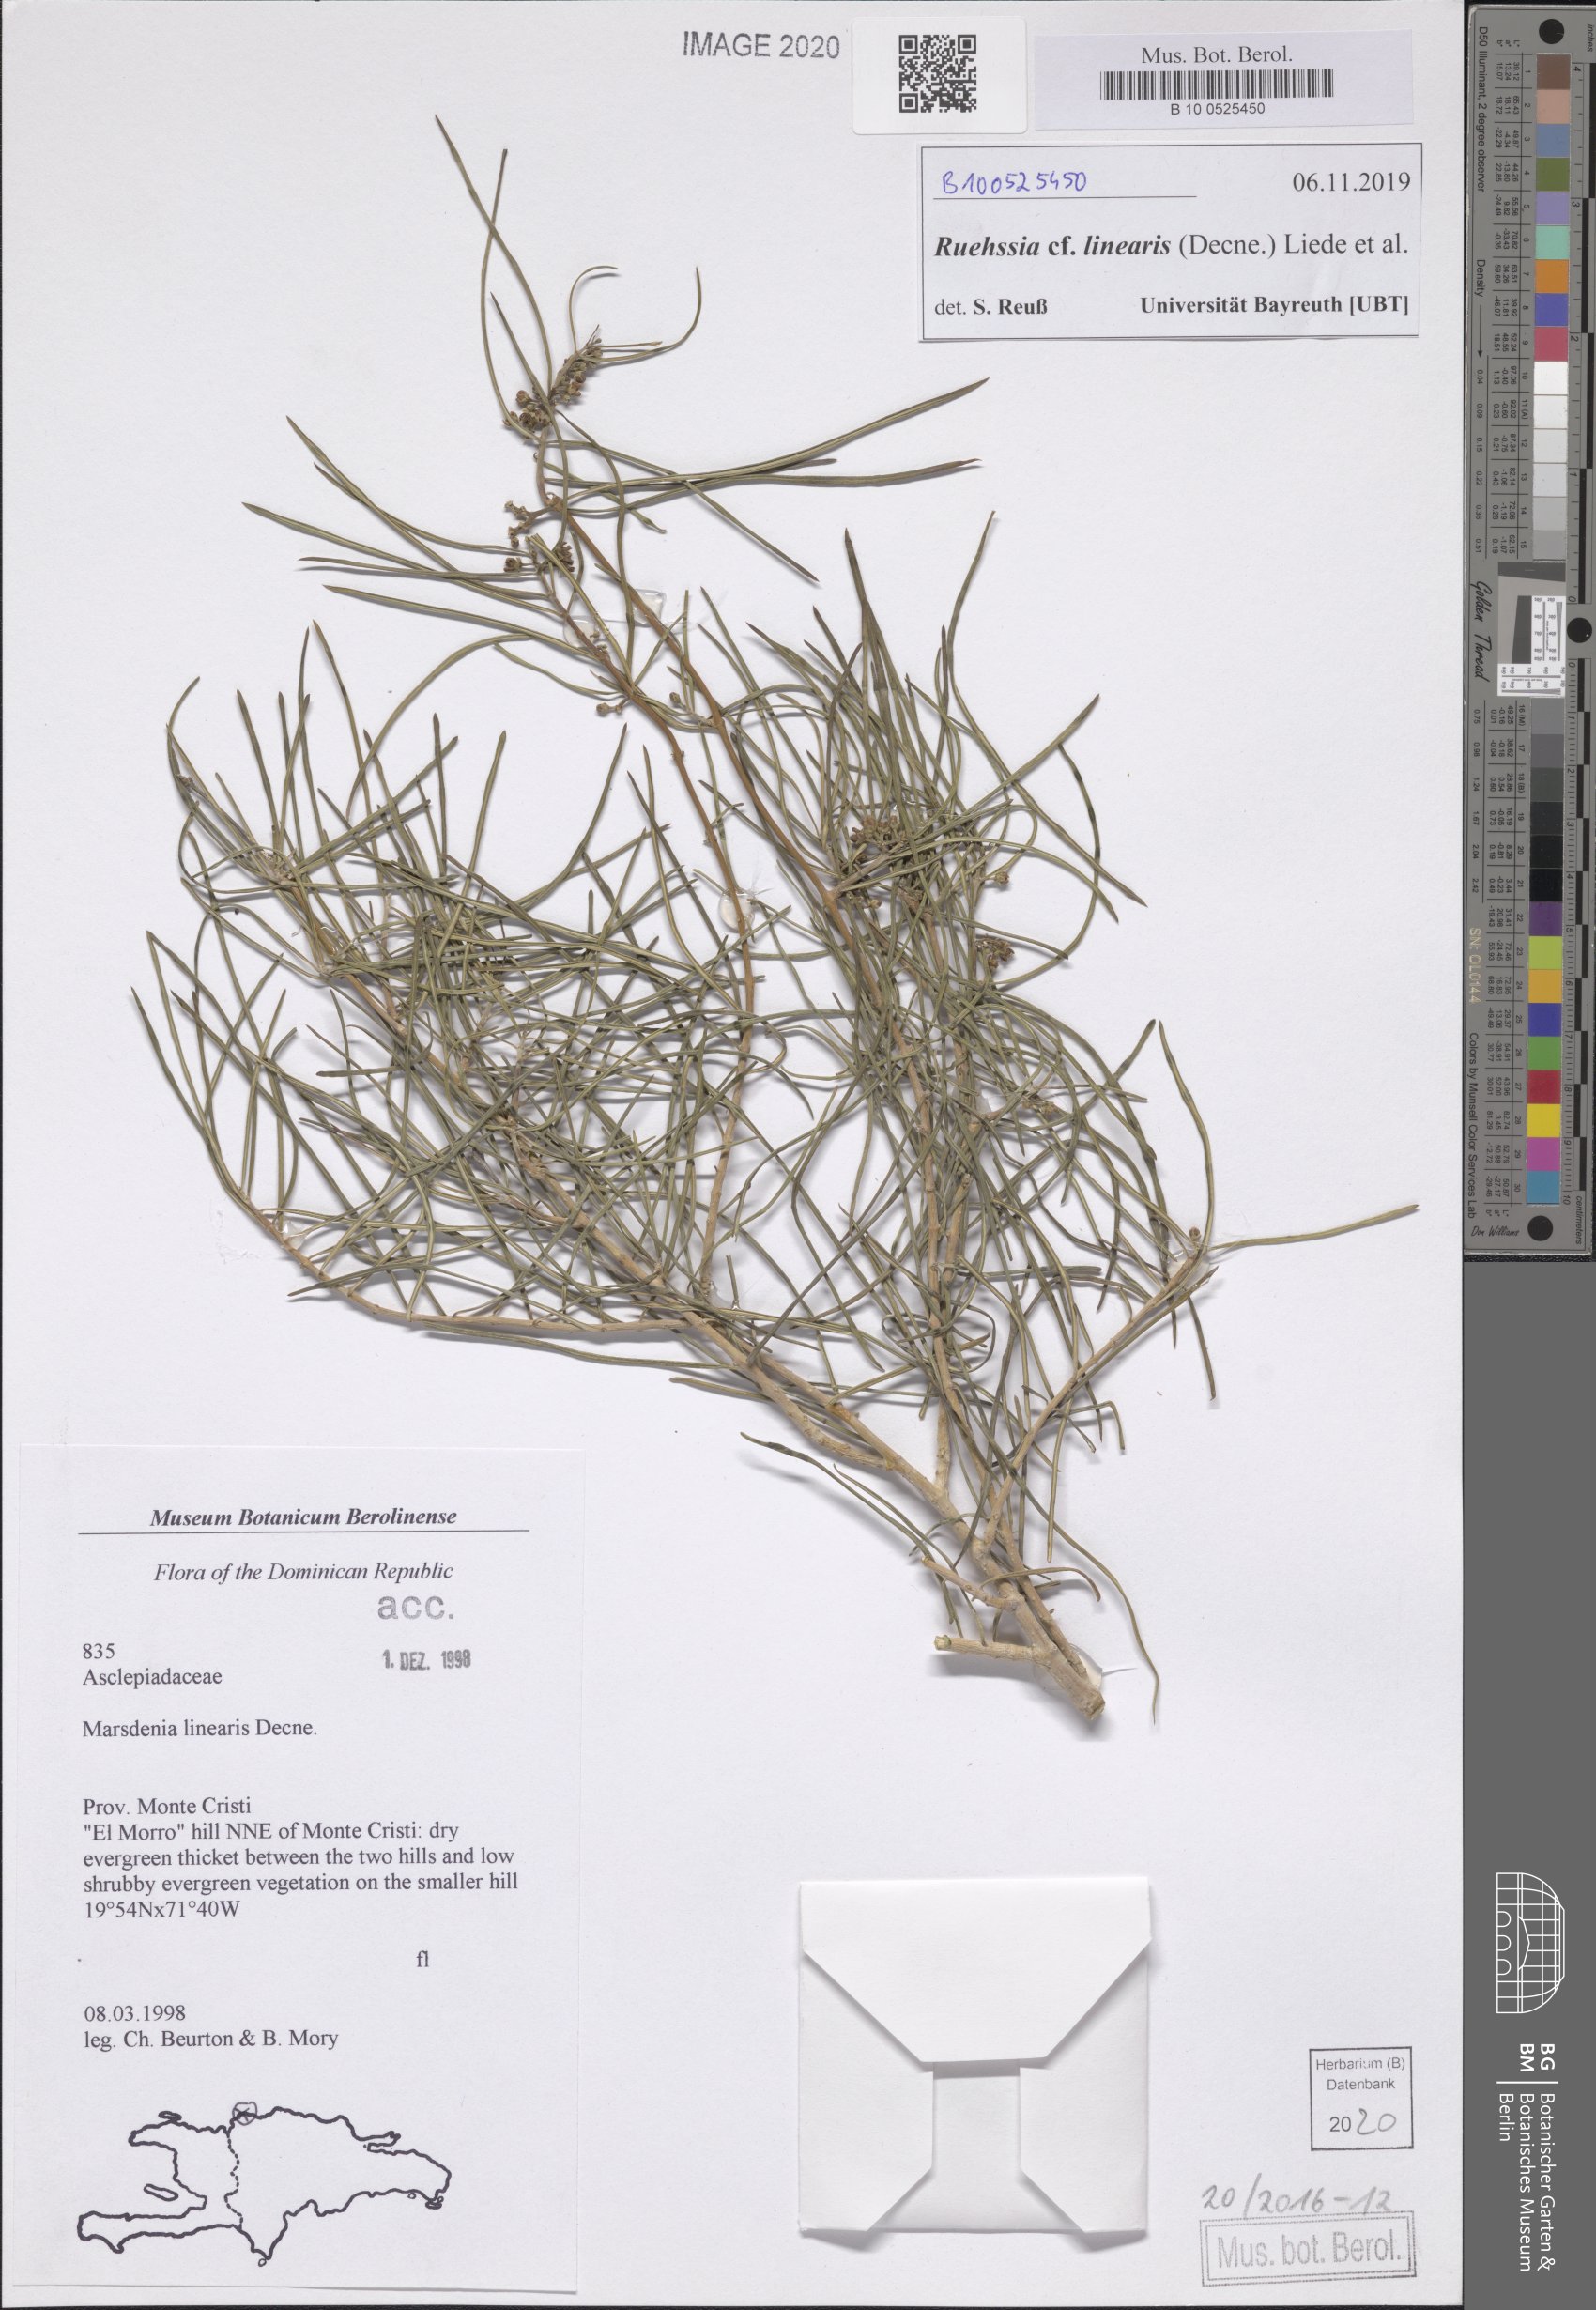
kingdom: Plantae
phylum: Tracheophyta
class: Magnoliopsida
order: Gentianales
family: Apocynaceae
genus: Ruehssia
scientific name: Ruehssia linearis
